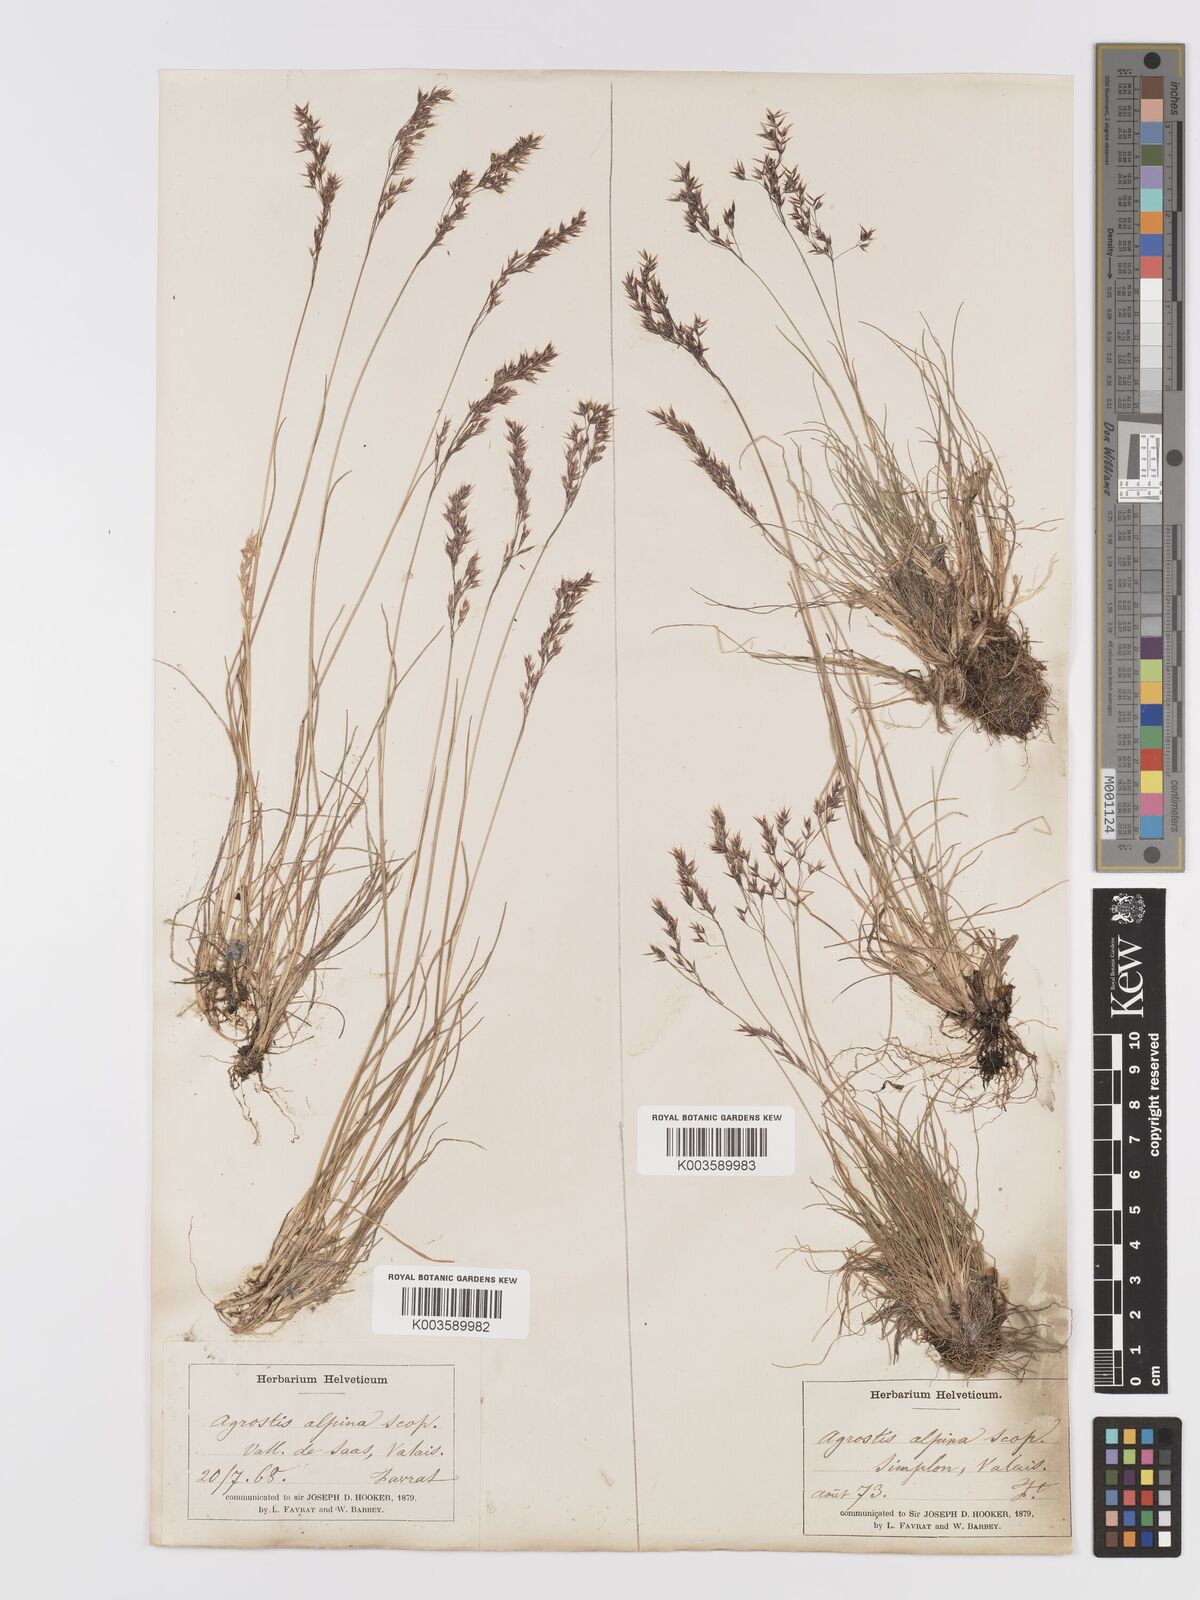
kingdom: Plantae
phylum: Tracheophyta
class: Liliopsida
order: Poales
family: Poaceae
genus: Alpagrostis
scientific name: Alpagrostis alpina
